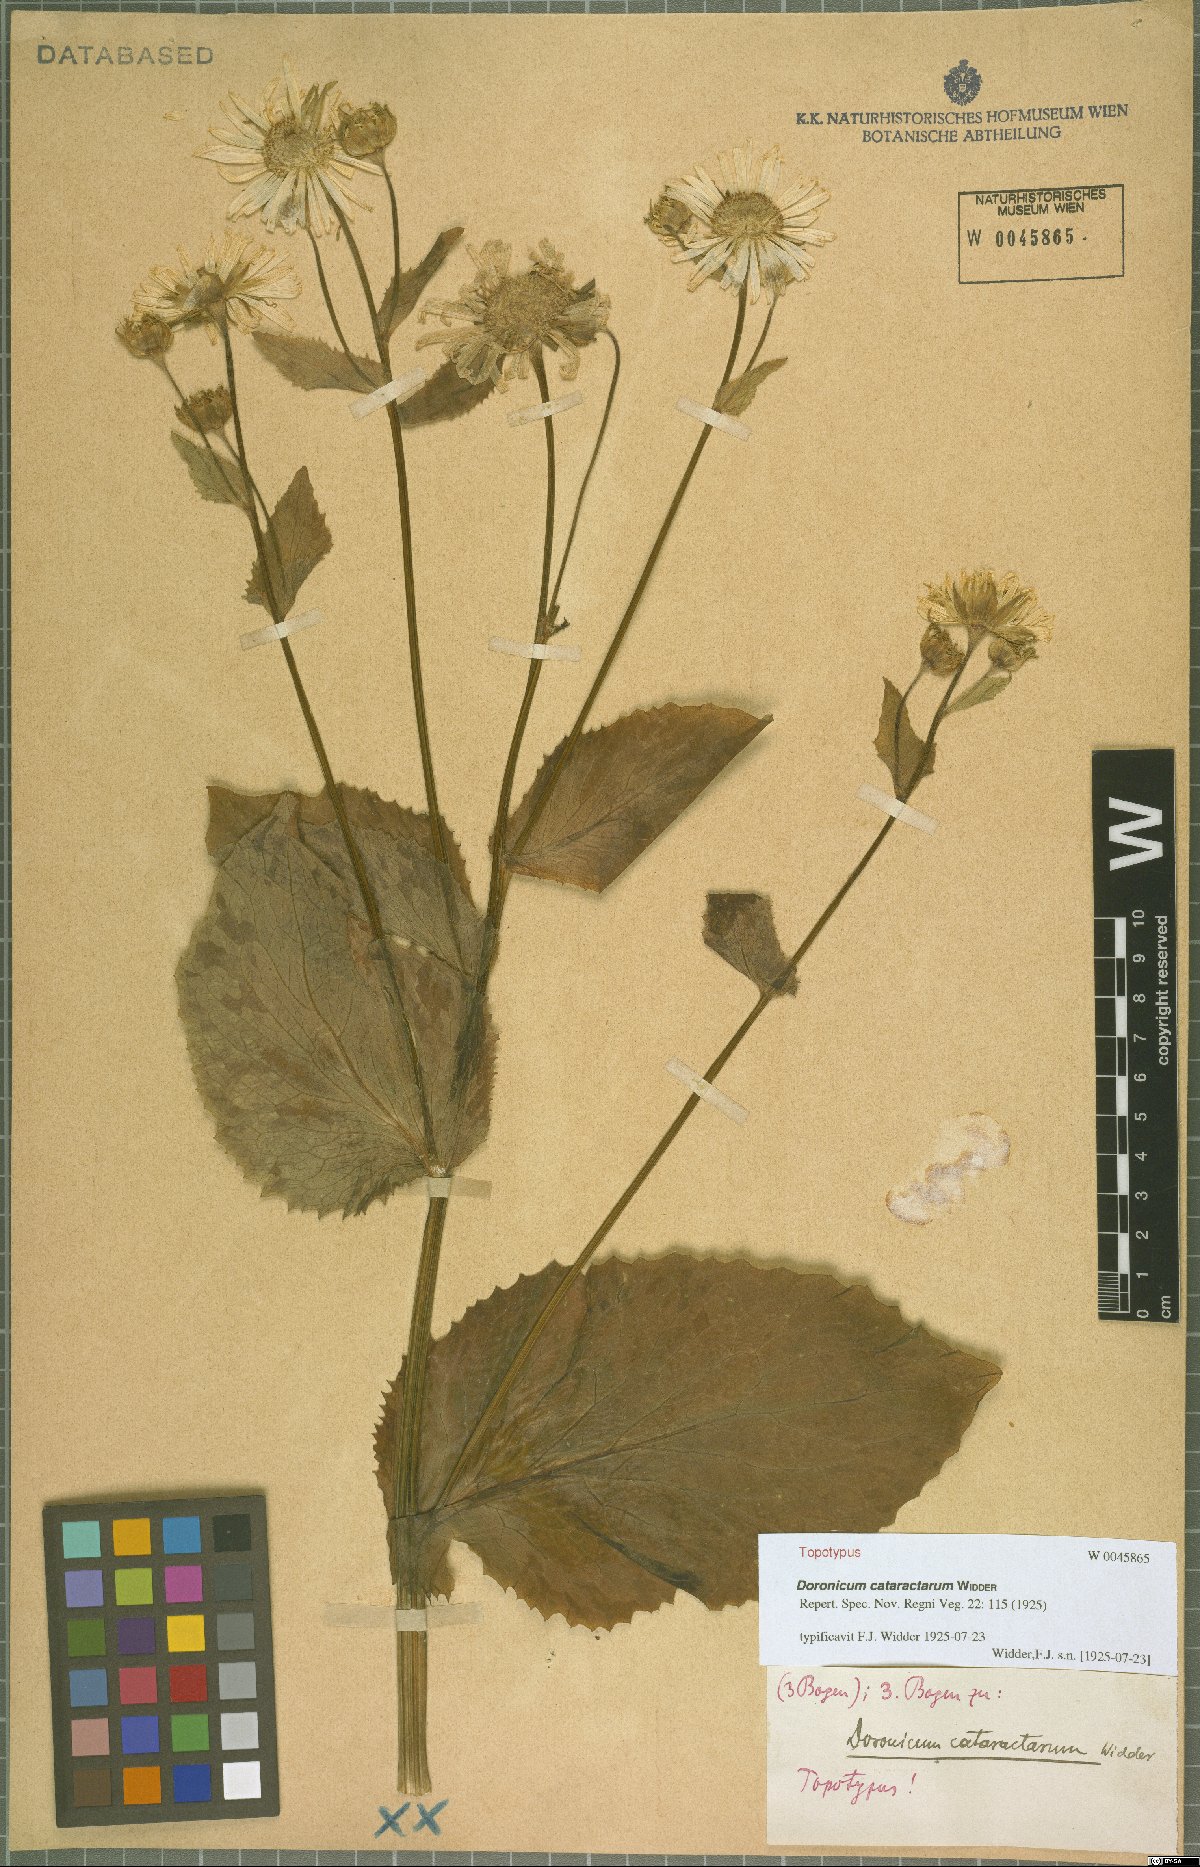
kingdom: Plantae
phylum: Tracheophyta
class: Magnoliopsida
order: Asterales
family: Asteraceae
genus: Doronicum
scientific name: Doronicum cataractarum
